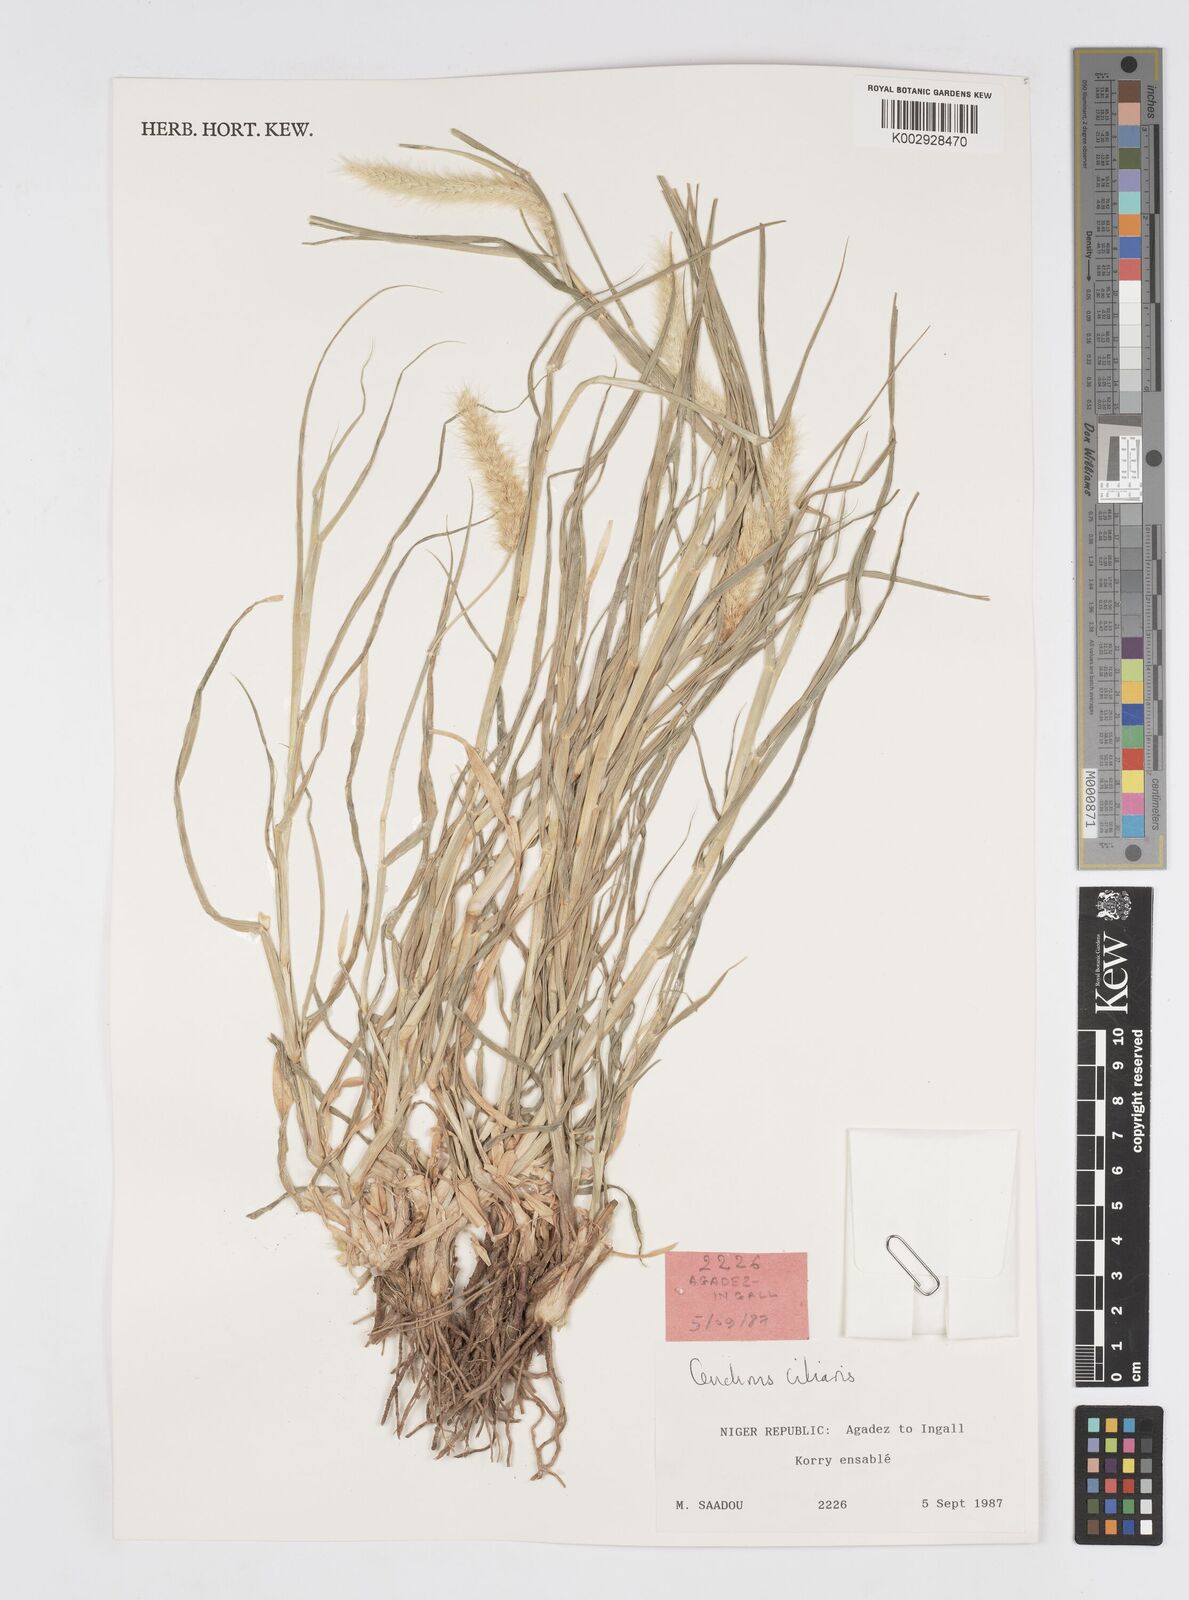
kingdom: Plantae
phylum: Tracheophyta
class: Liliopsida
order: Poales
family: Poaceae
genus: Cenchrus
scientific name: Cenchrus ciliaris
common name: Buffelgrass
